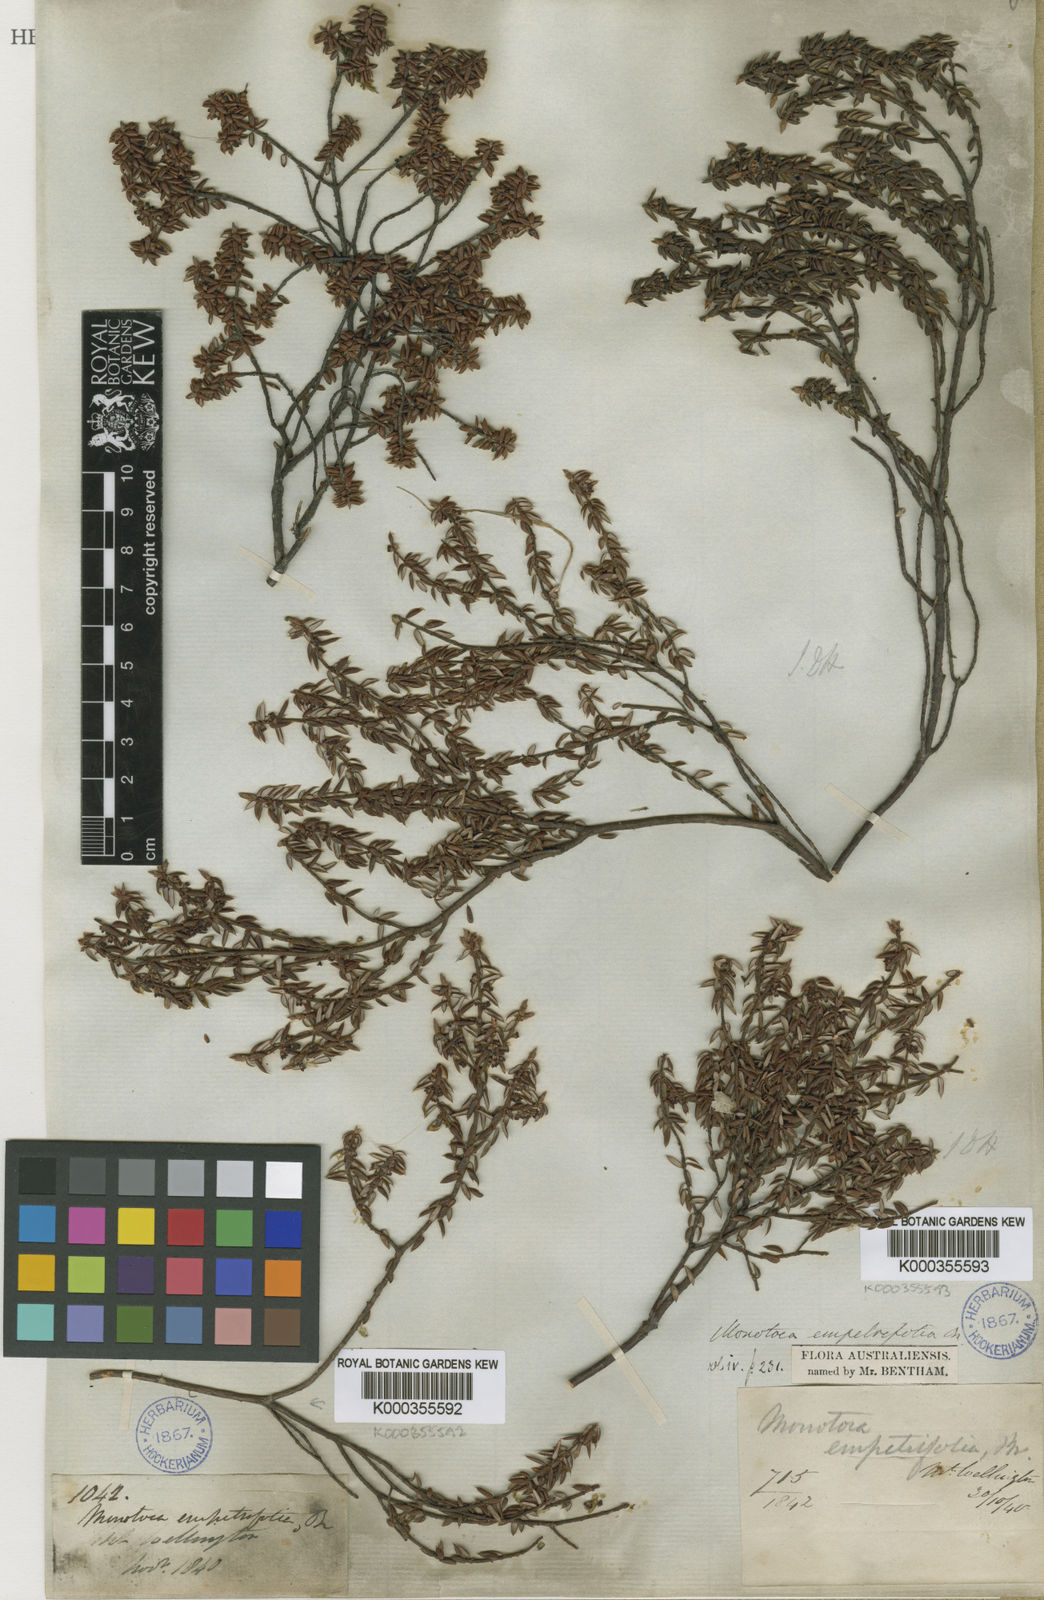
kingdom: Plantae
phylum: Tracheophyta
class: Magnoliopsida
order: Ericales
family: Ericaceae
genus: Monotoca
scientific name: Monotoca empetrifolia
